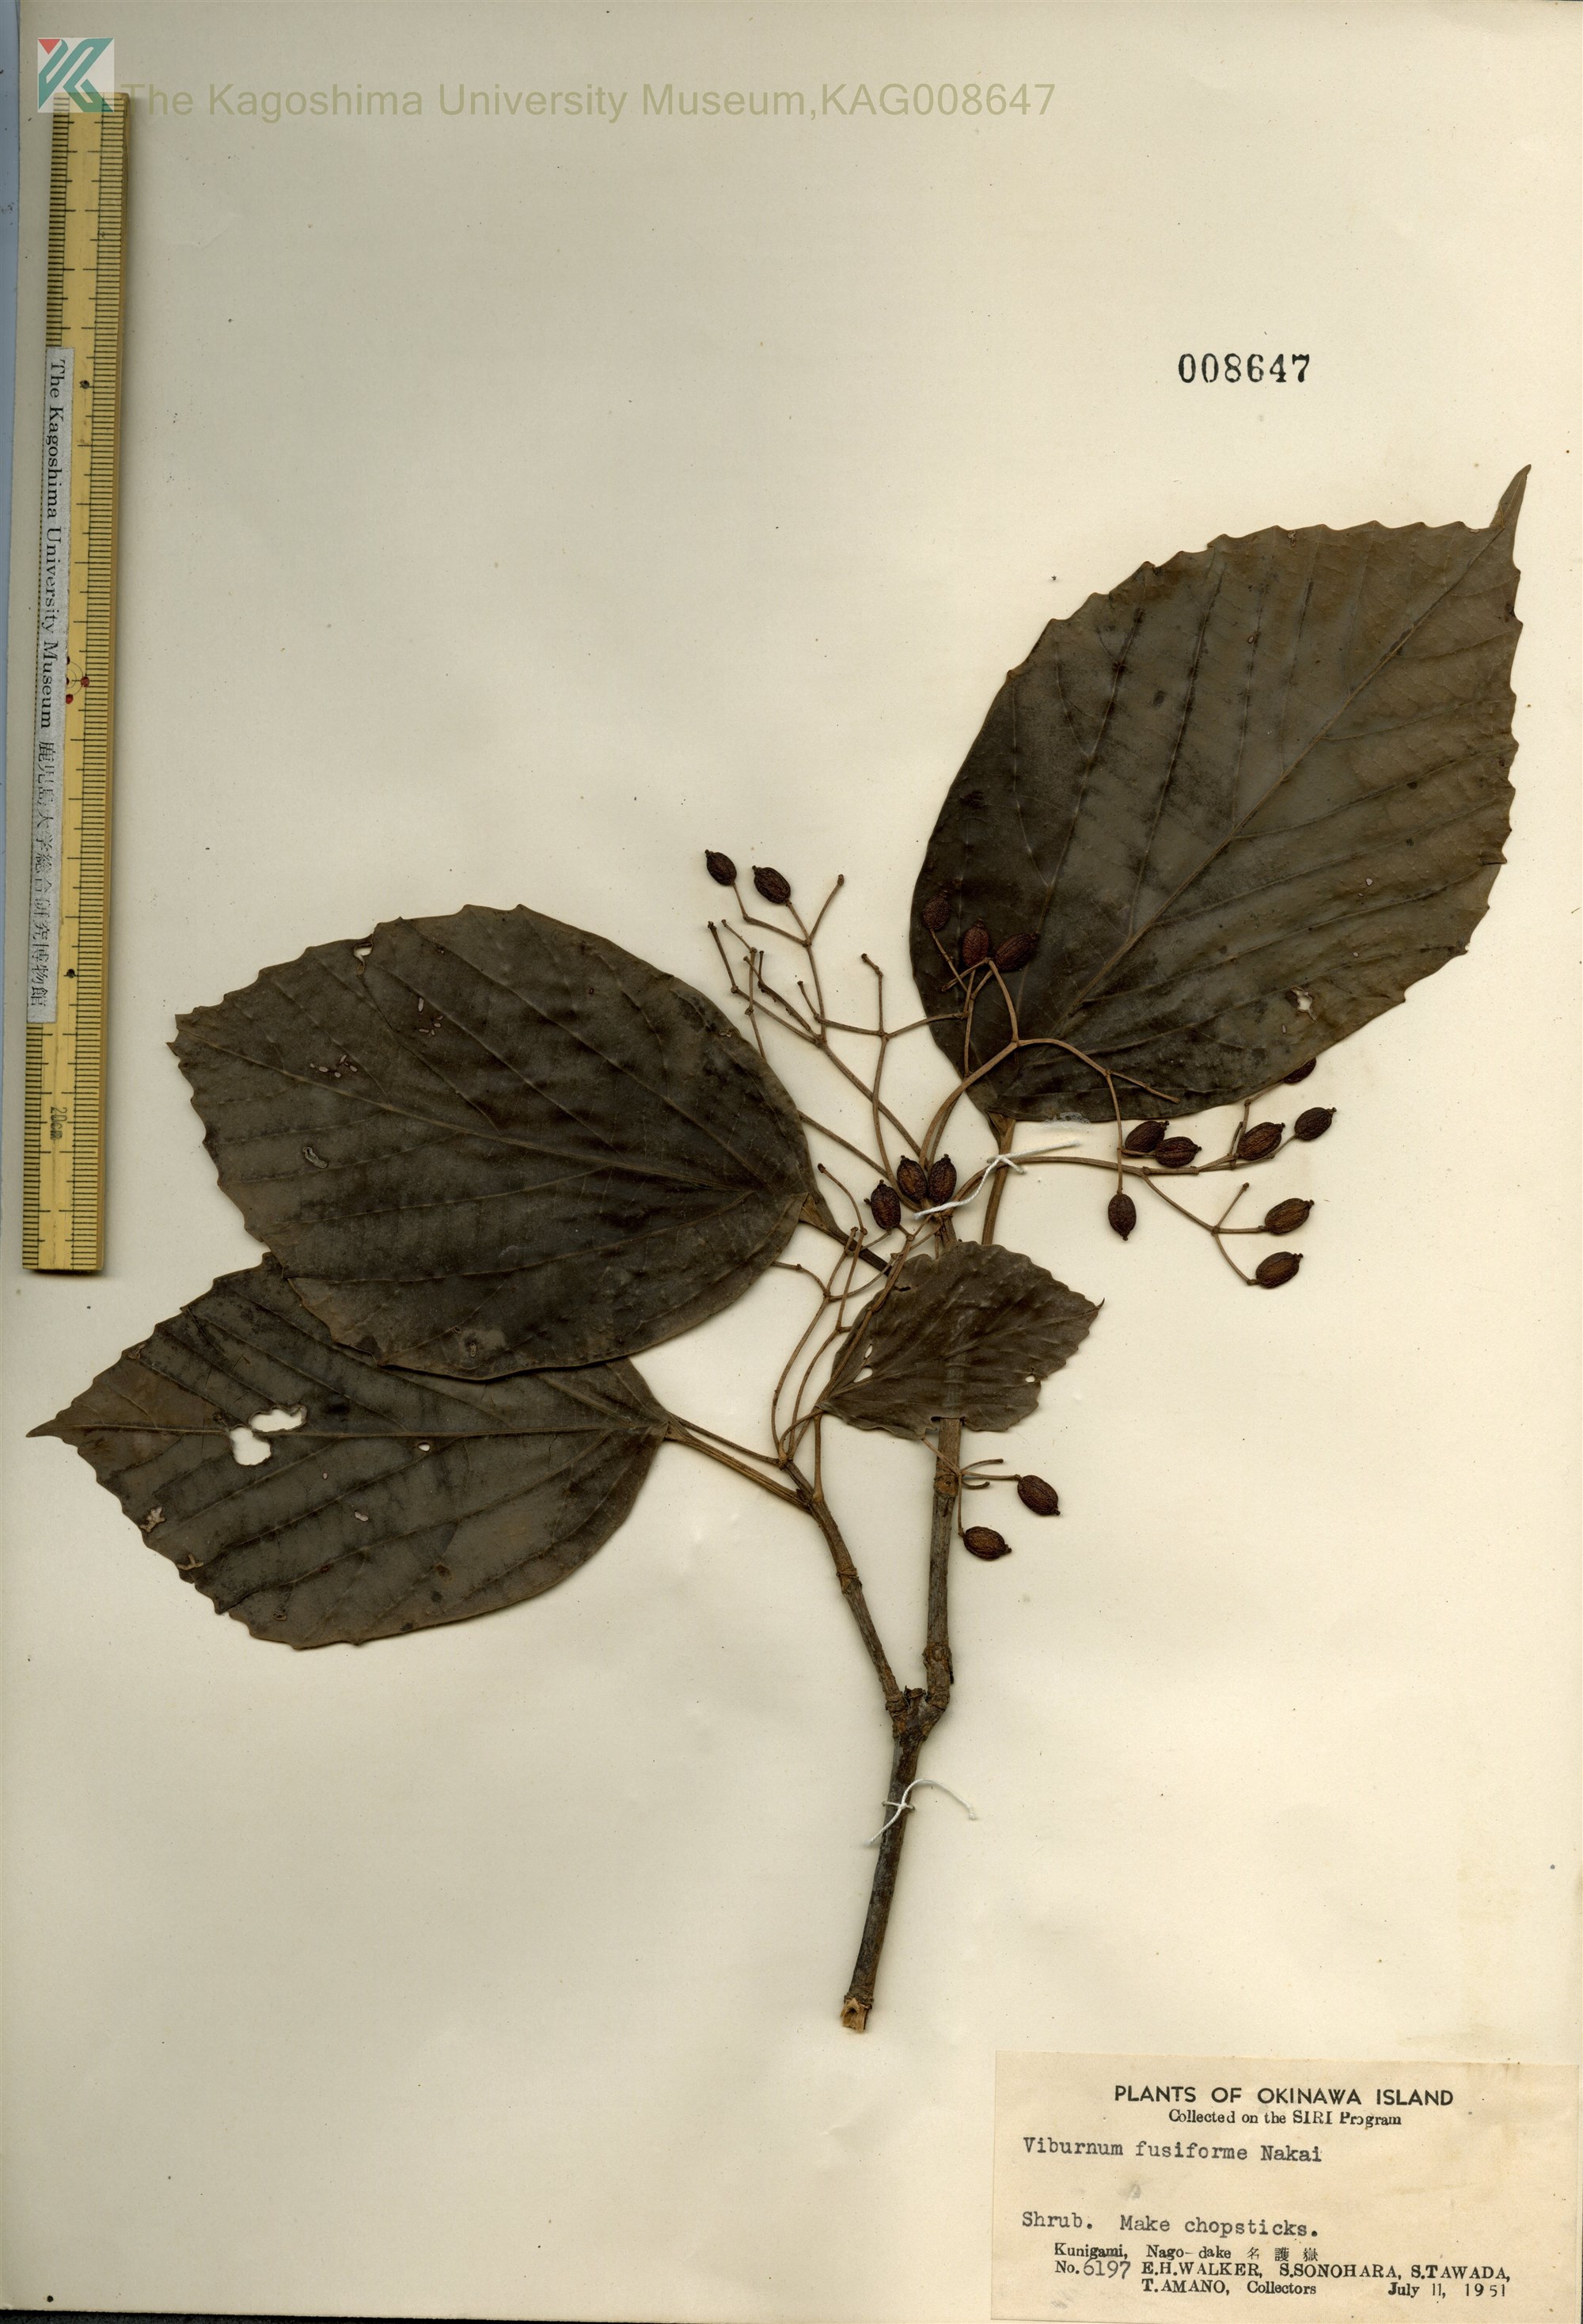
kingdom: Plantae
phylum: Tracheophyta
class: Magnoliopsida
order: Dipsacales
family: Viburnaceae
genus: Viburnum
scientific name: Viburnum japonicum
